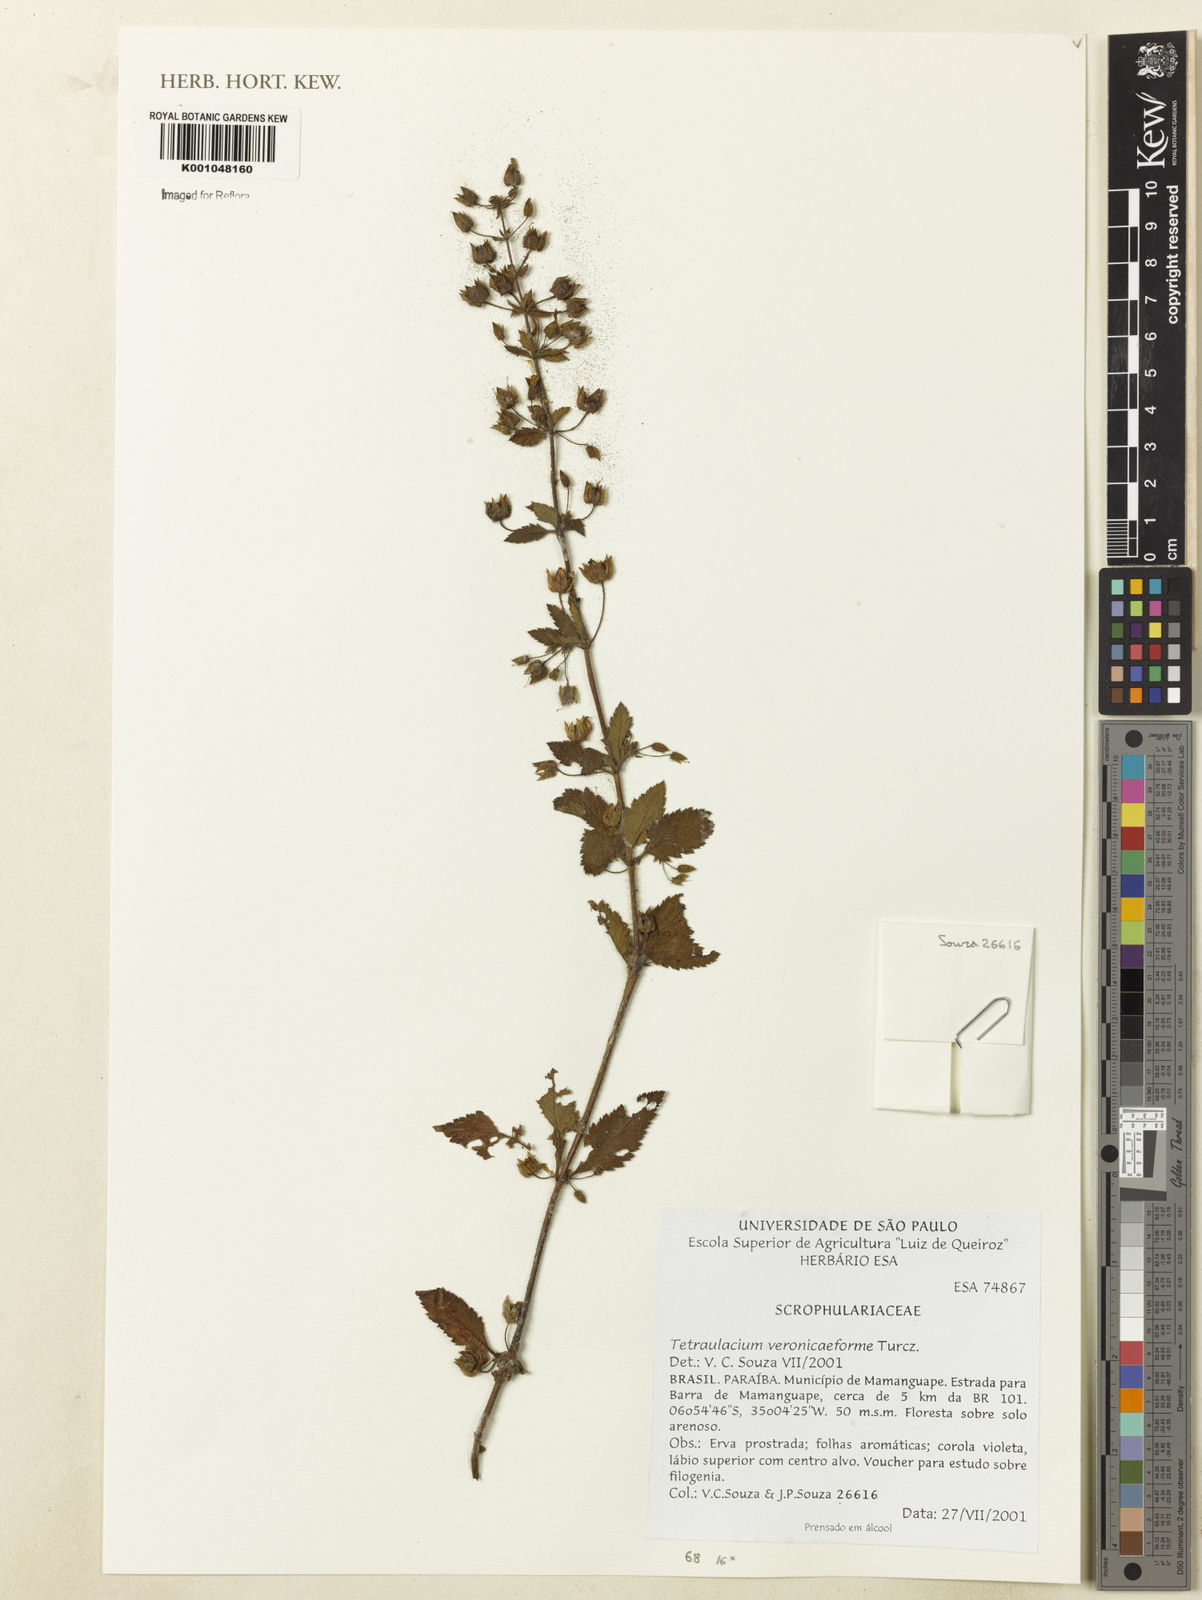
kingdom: Plantae
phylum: Tracheophyta
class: Magnoliopsida
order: Lamiales
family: Plantaginaceae
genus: Tetraulacium
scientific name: Tetraulacium veroniciforme
